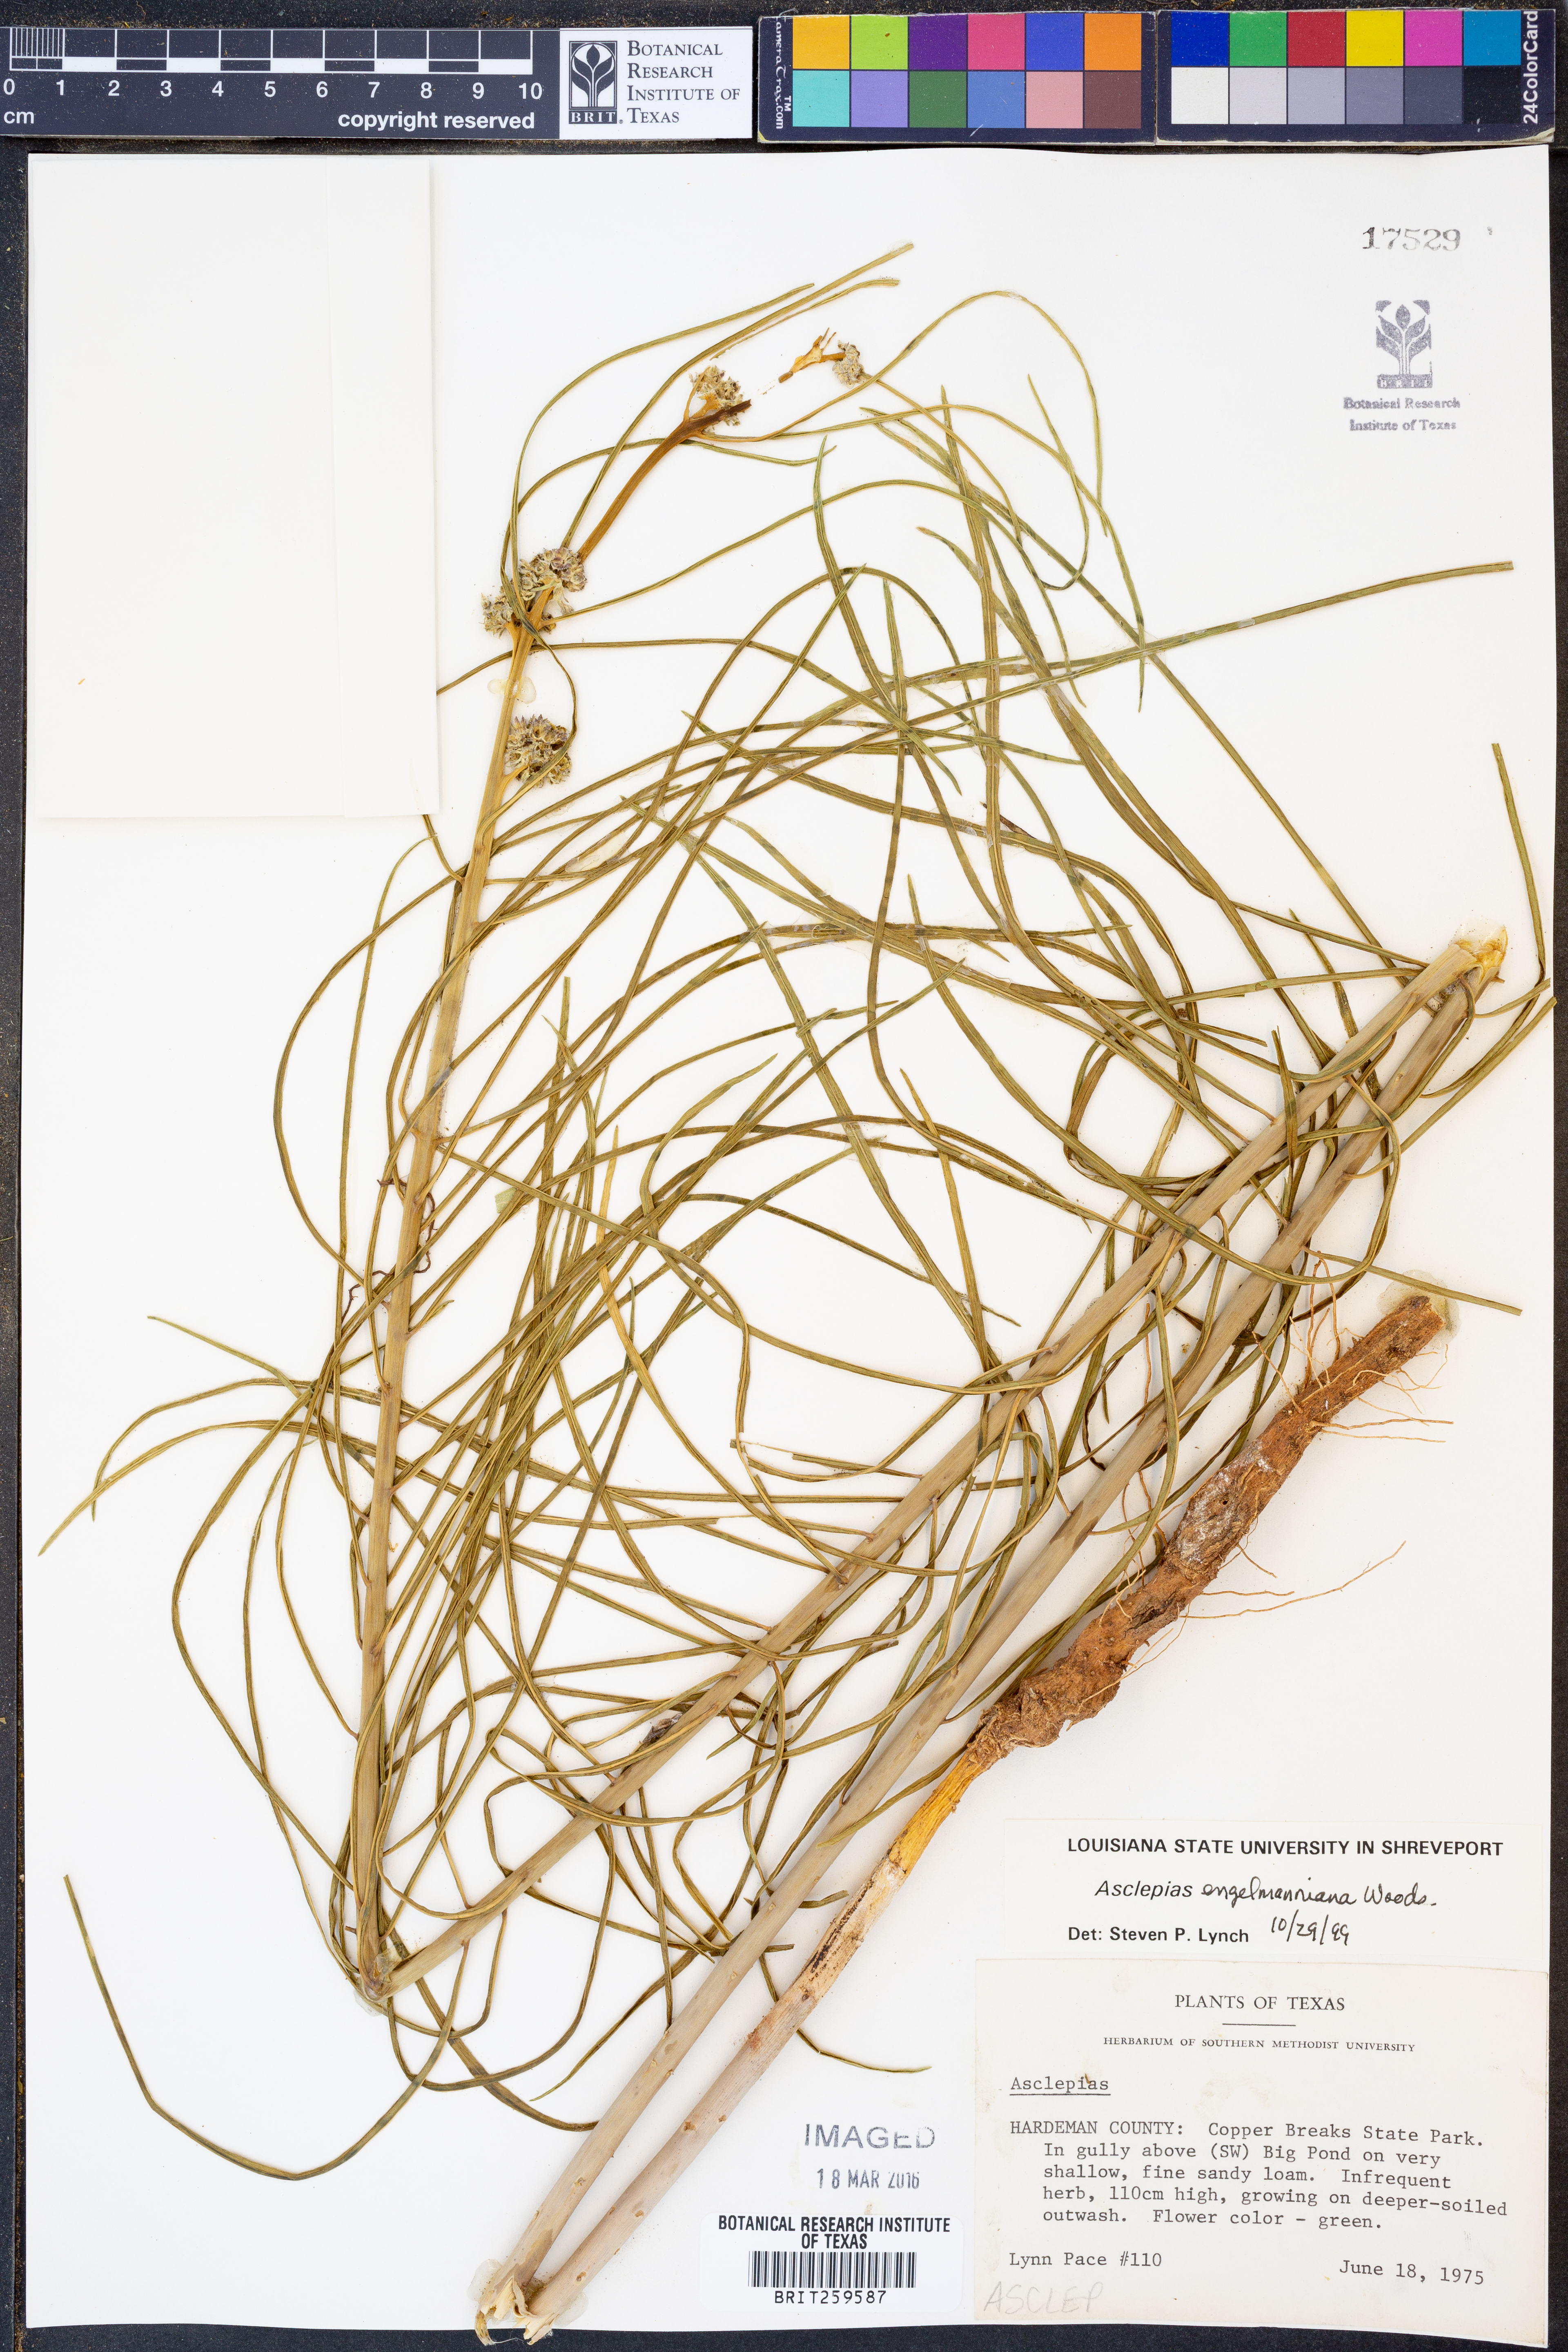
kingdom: Plantae
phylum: Tracheophyta
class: Magnoliopsida
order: Gentianales
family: Apocynaceae
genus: Asclepias
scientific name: Asclepias engelmanniana
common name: Engelmann's milkweed
